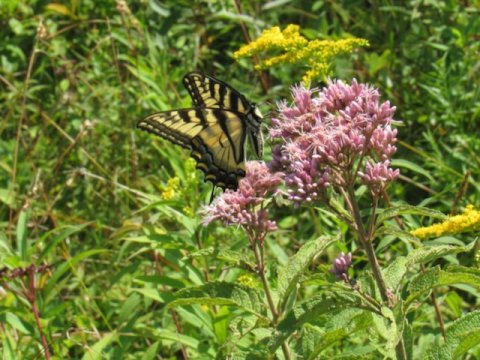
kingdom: Animalia
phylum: Arthropoda
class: Insecta
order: Lepidoptera
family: Papilionidae
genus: Pterourus
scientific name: Pterourus
